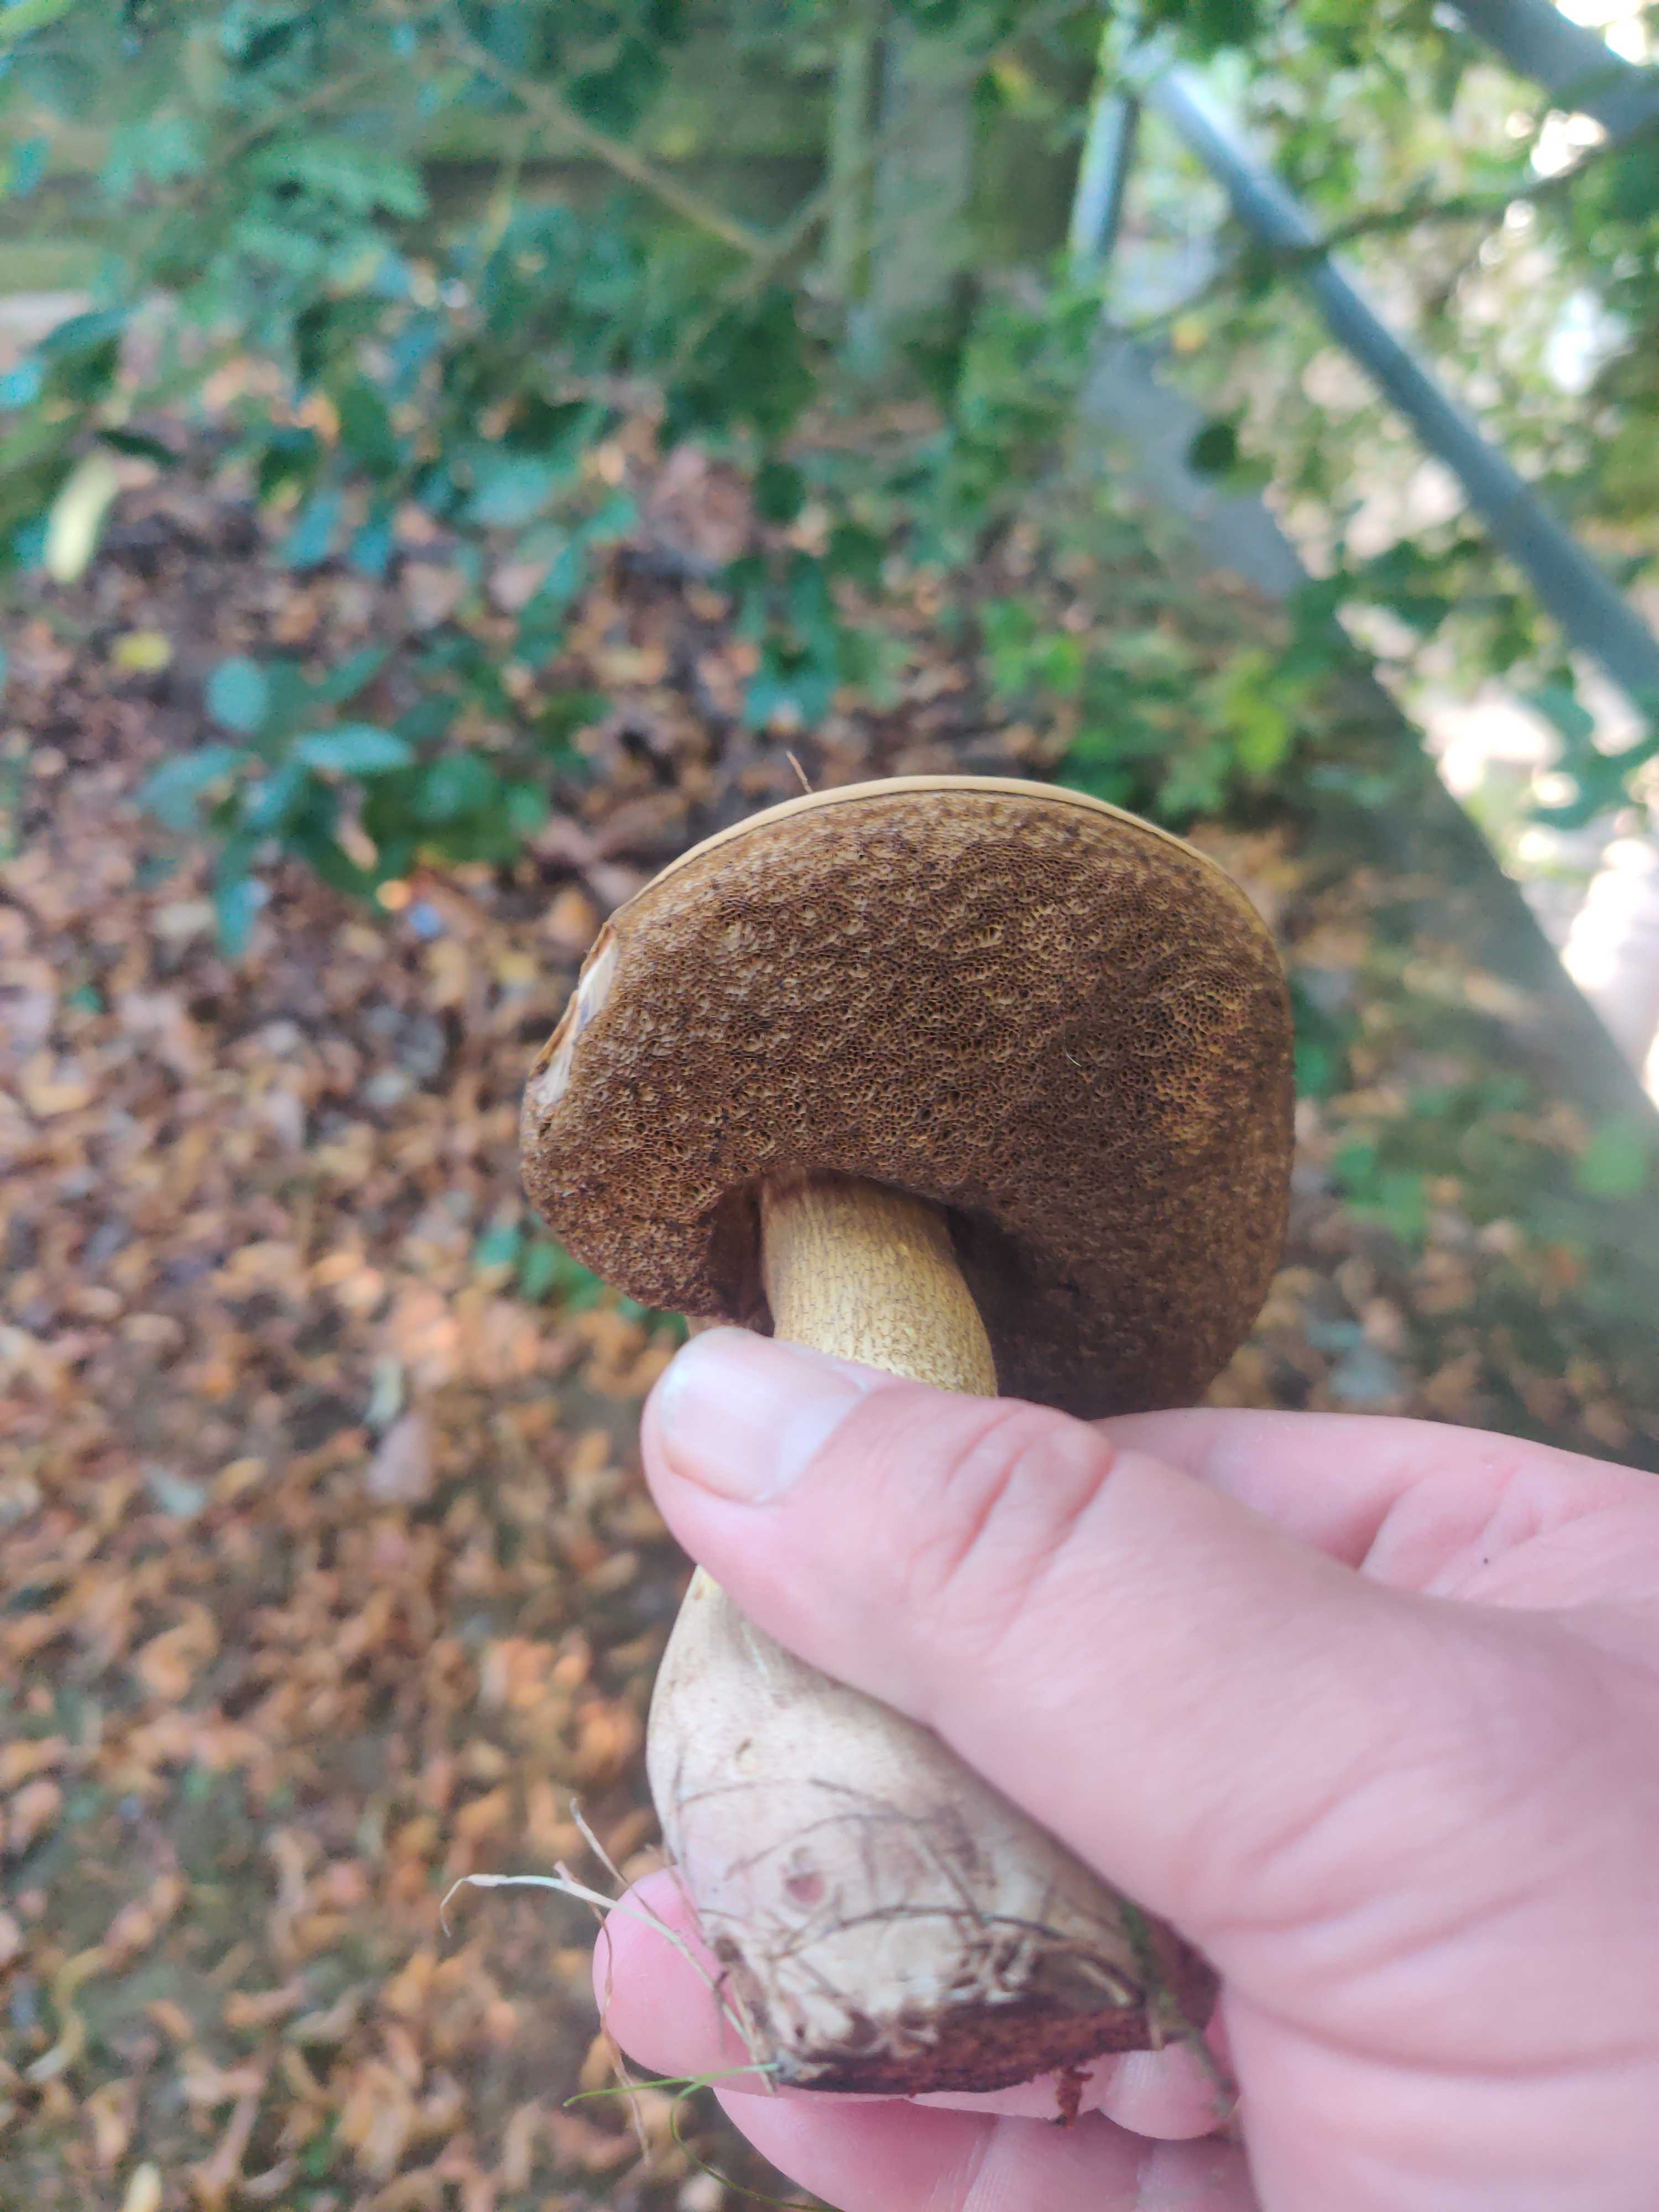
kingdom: Fungi
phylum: Basidiomycota
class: Agaricomycetes
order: Boletales
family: Boletaceae
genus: Tylopilus
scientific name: Tylopilus felleus
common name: galderørhat
